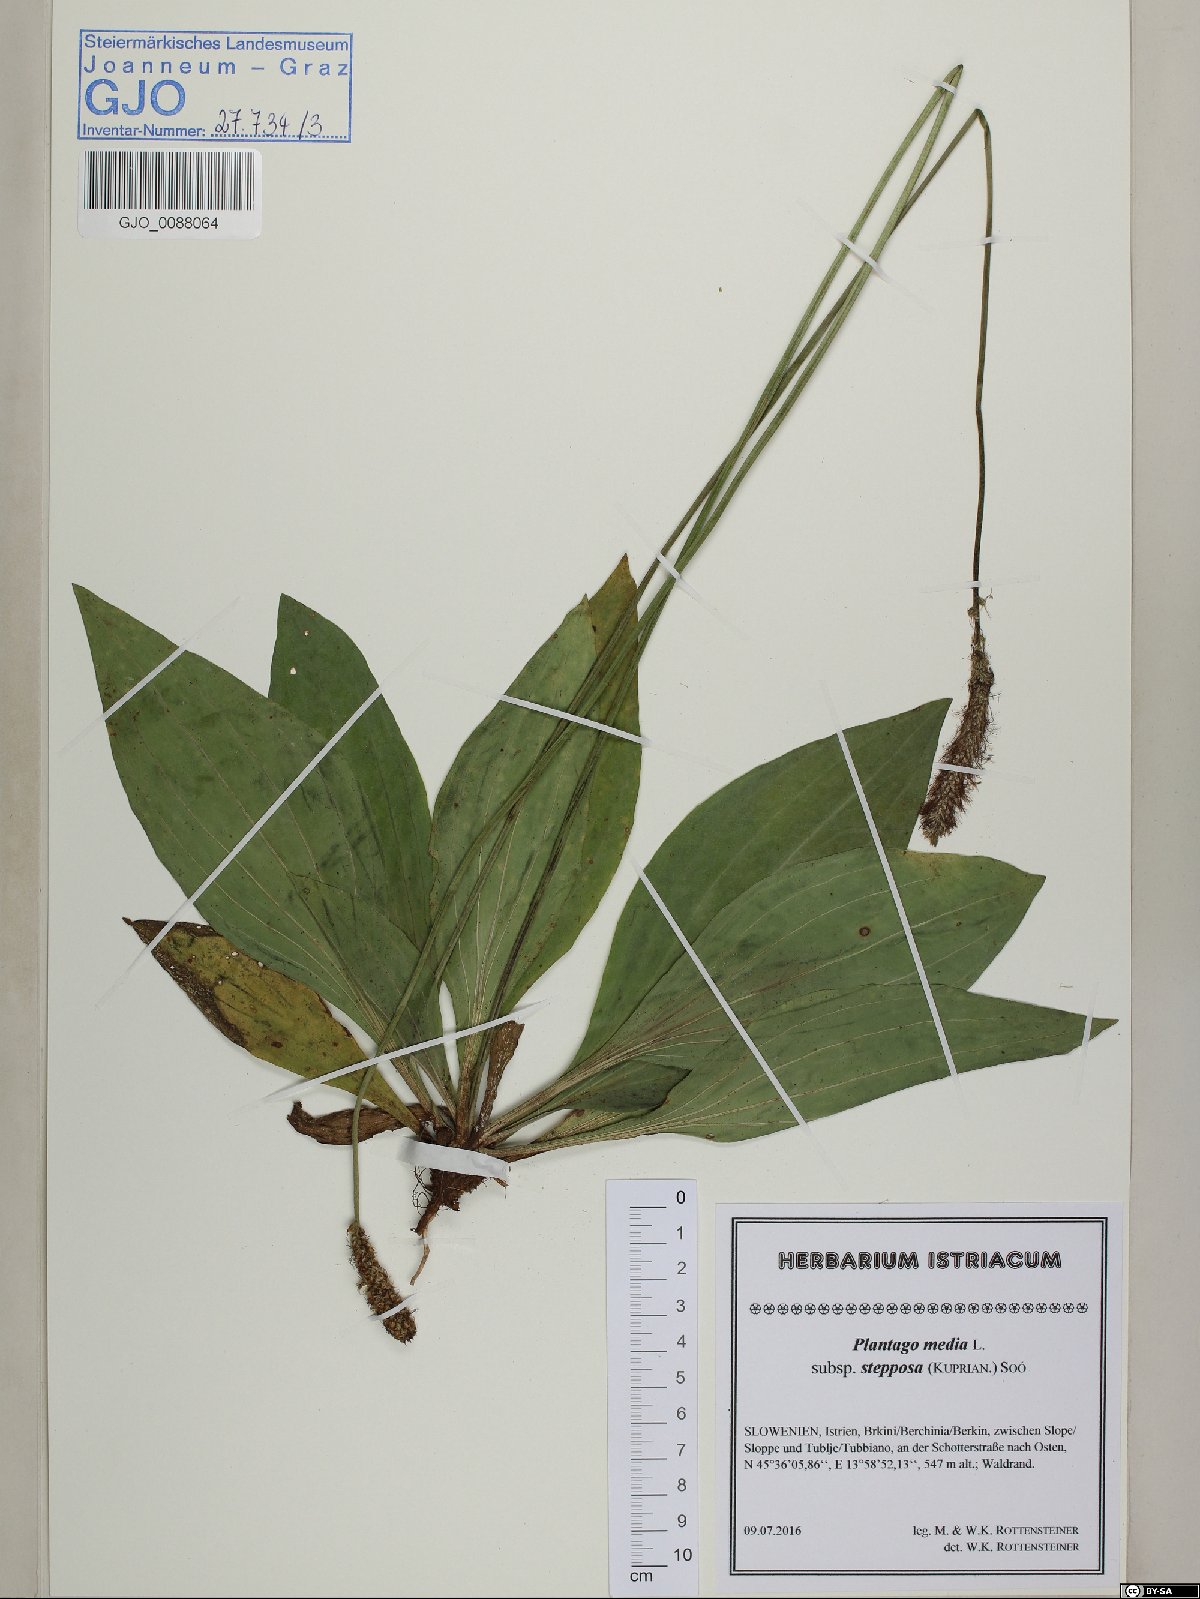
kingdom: Plantae
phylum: Tracheophyta
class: Magnoliopsida
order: Lamiales
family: Plantaginaceae
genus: Plantago
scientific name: Plantago urvillei
